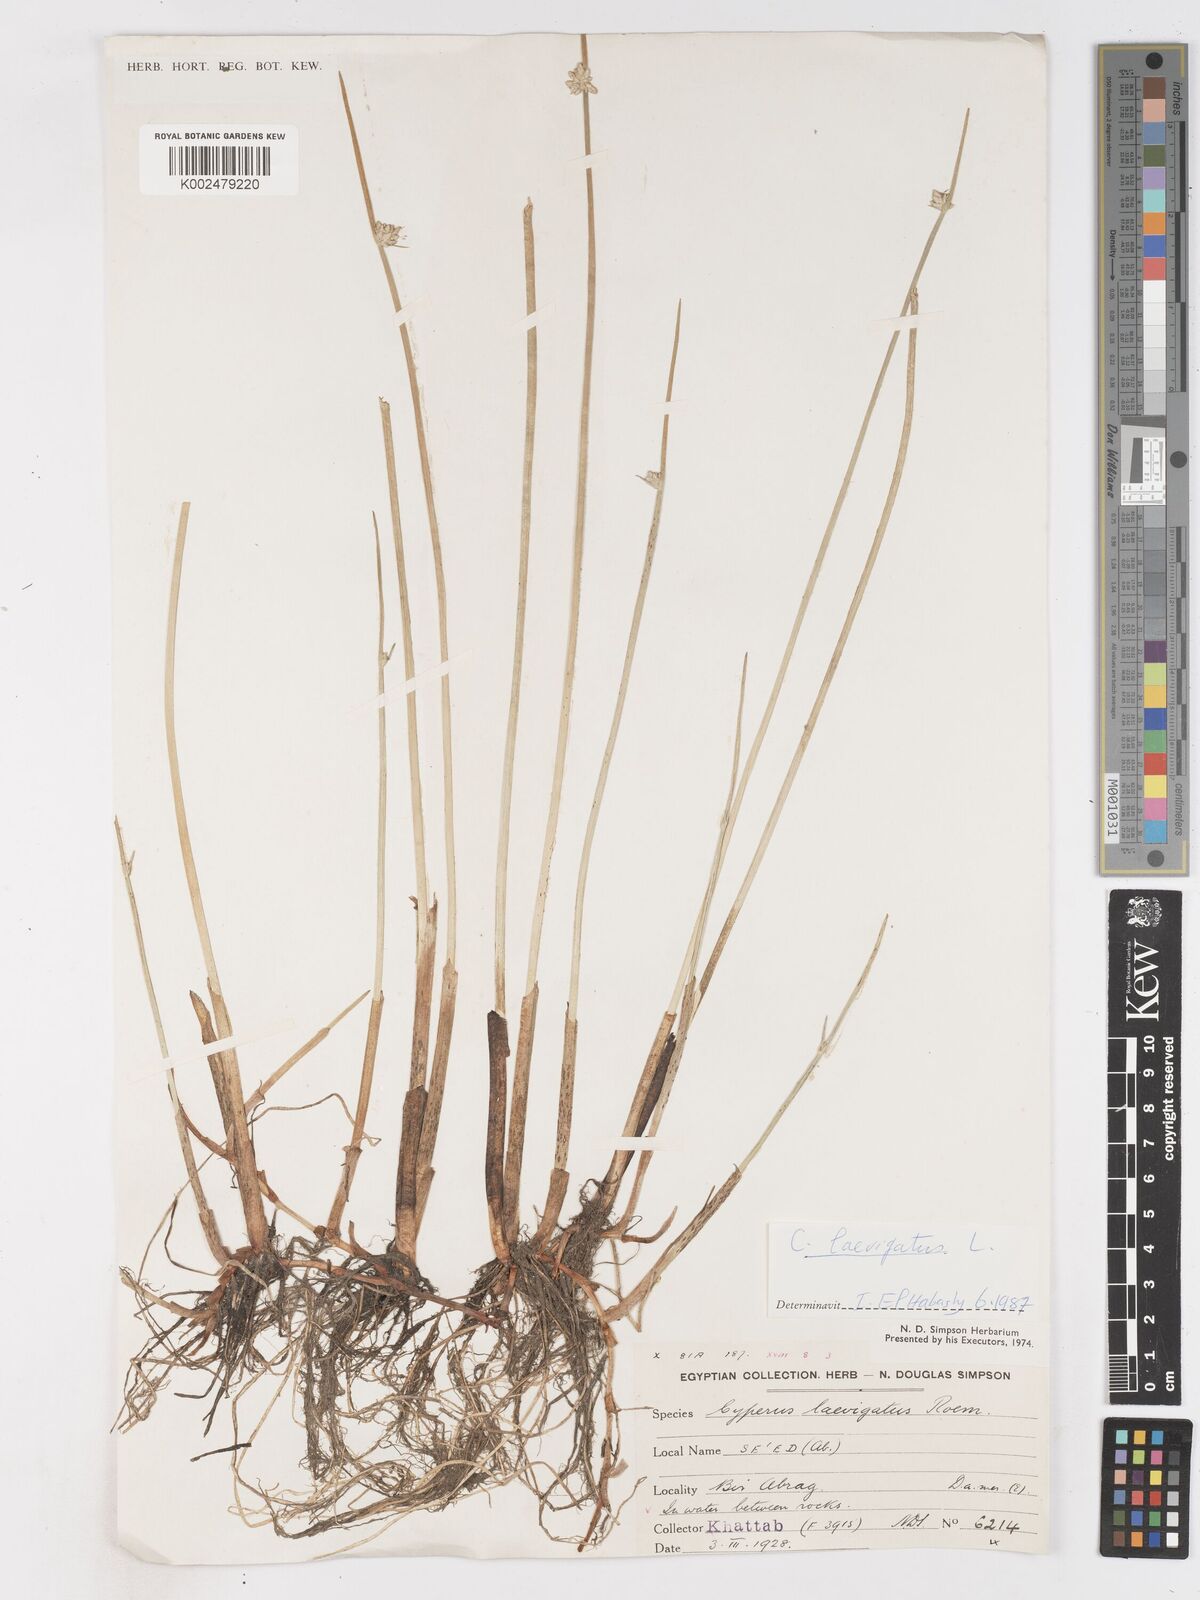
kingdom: Plantae
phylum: Tracheophyta
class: Liliopsida
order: Poales
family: Cyperaceae
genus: Cyperus
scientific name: Cyperus laevigatus
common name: Smooth flat sedge
